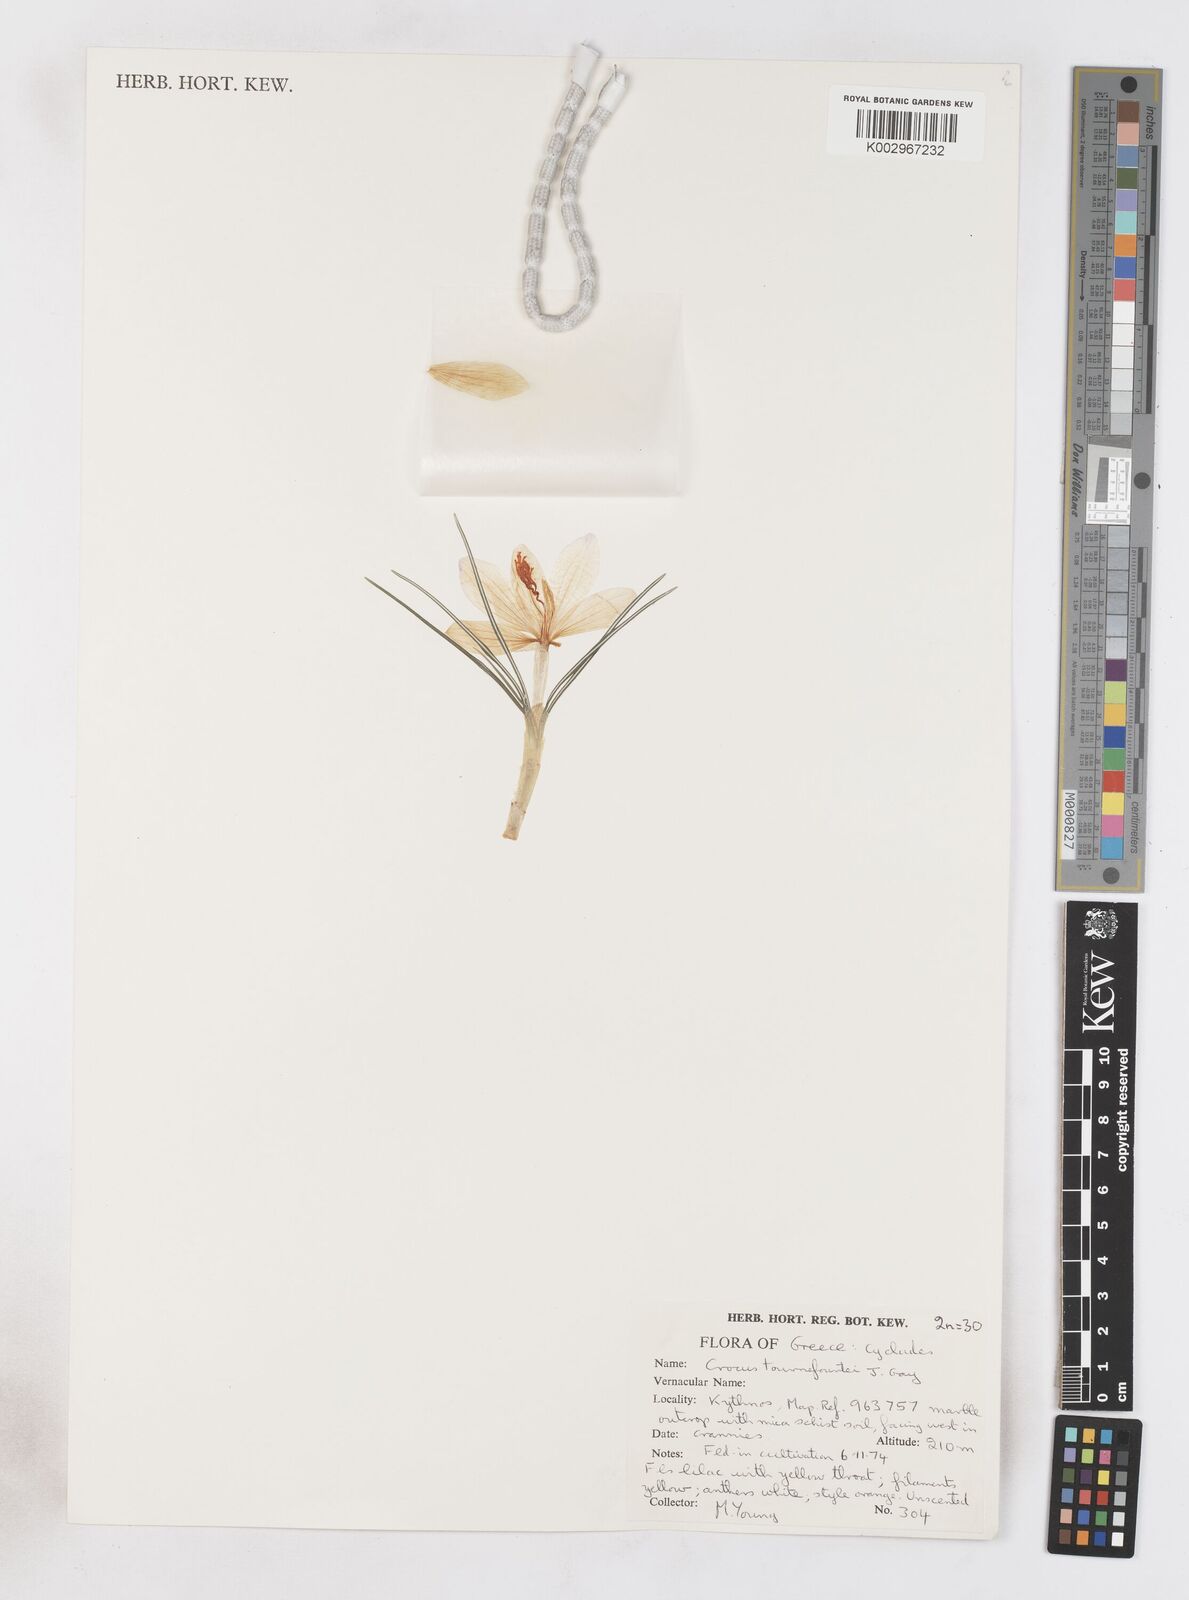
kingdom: Plantae
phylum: Tracheophyta
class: Liliopsida
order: Asparagales
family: Iridaceae
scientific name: Iridaceae
